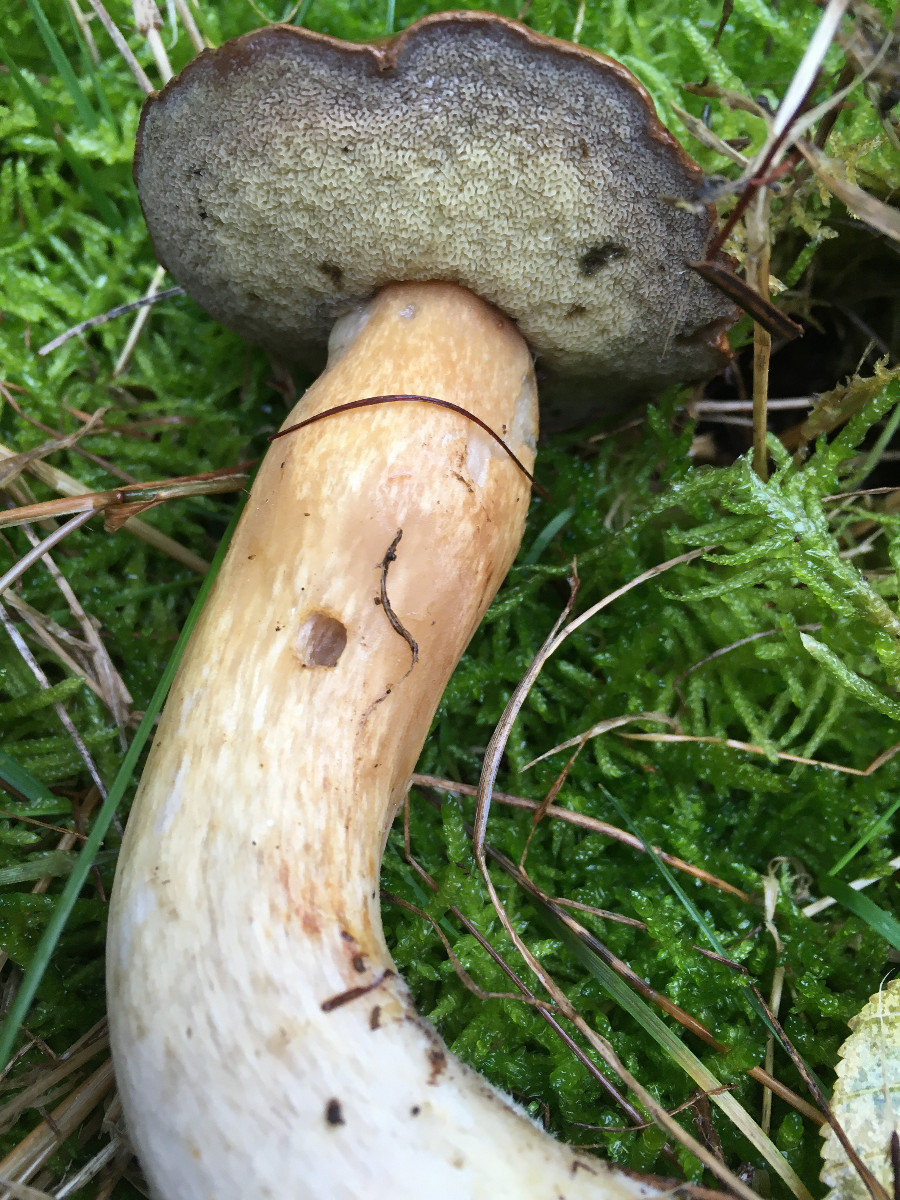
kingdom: Fungi
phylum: Basidiomycota
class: Agaricomycetes
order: Boletales
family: Boletaceae
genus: Imleria
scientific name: Imleria badia
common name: brunstokket rørhat
